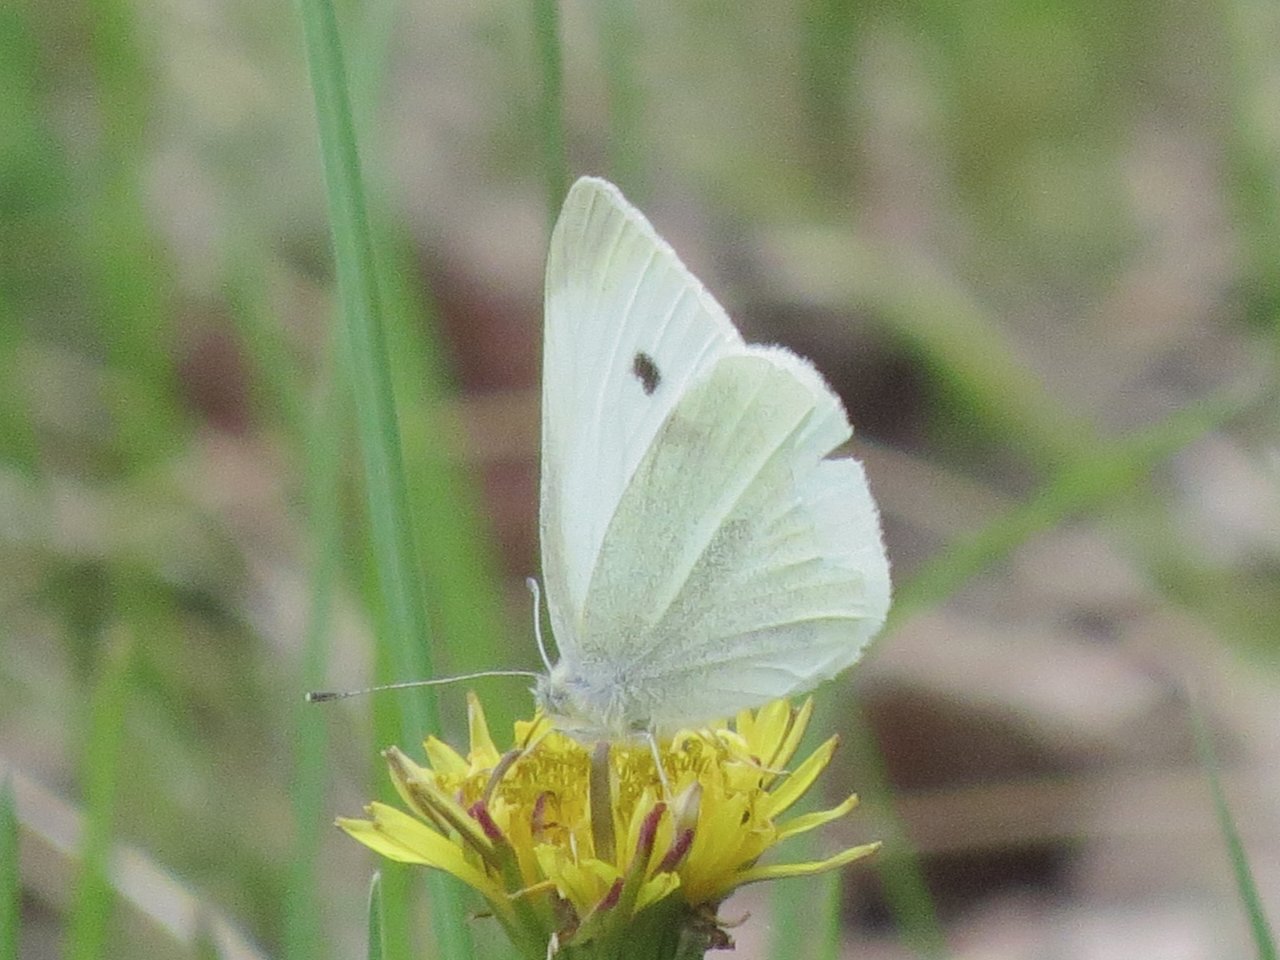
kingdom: Animalia
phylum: Arthropoda
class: Insecta
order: Lepidoptera
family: Pieridae
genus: Pieris
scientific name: Pieris rapae
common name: Cabbage White
